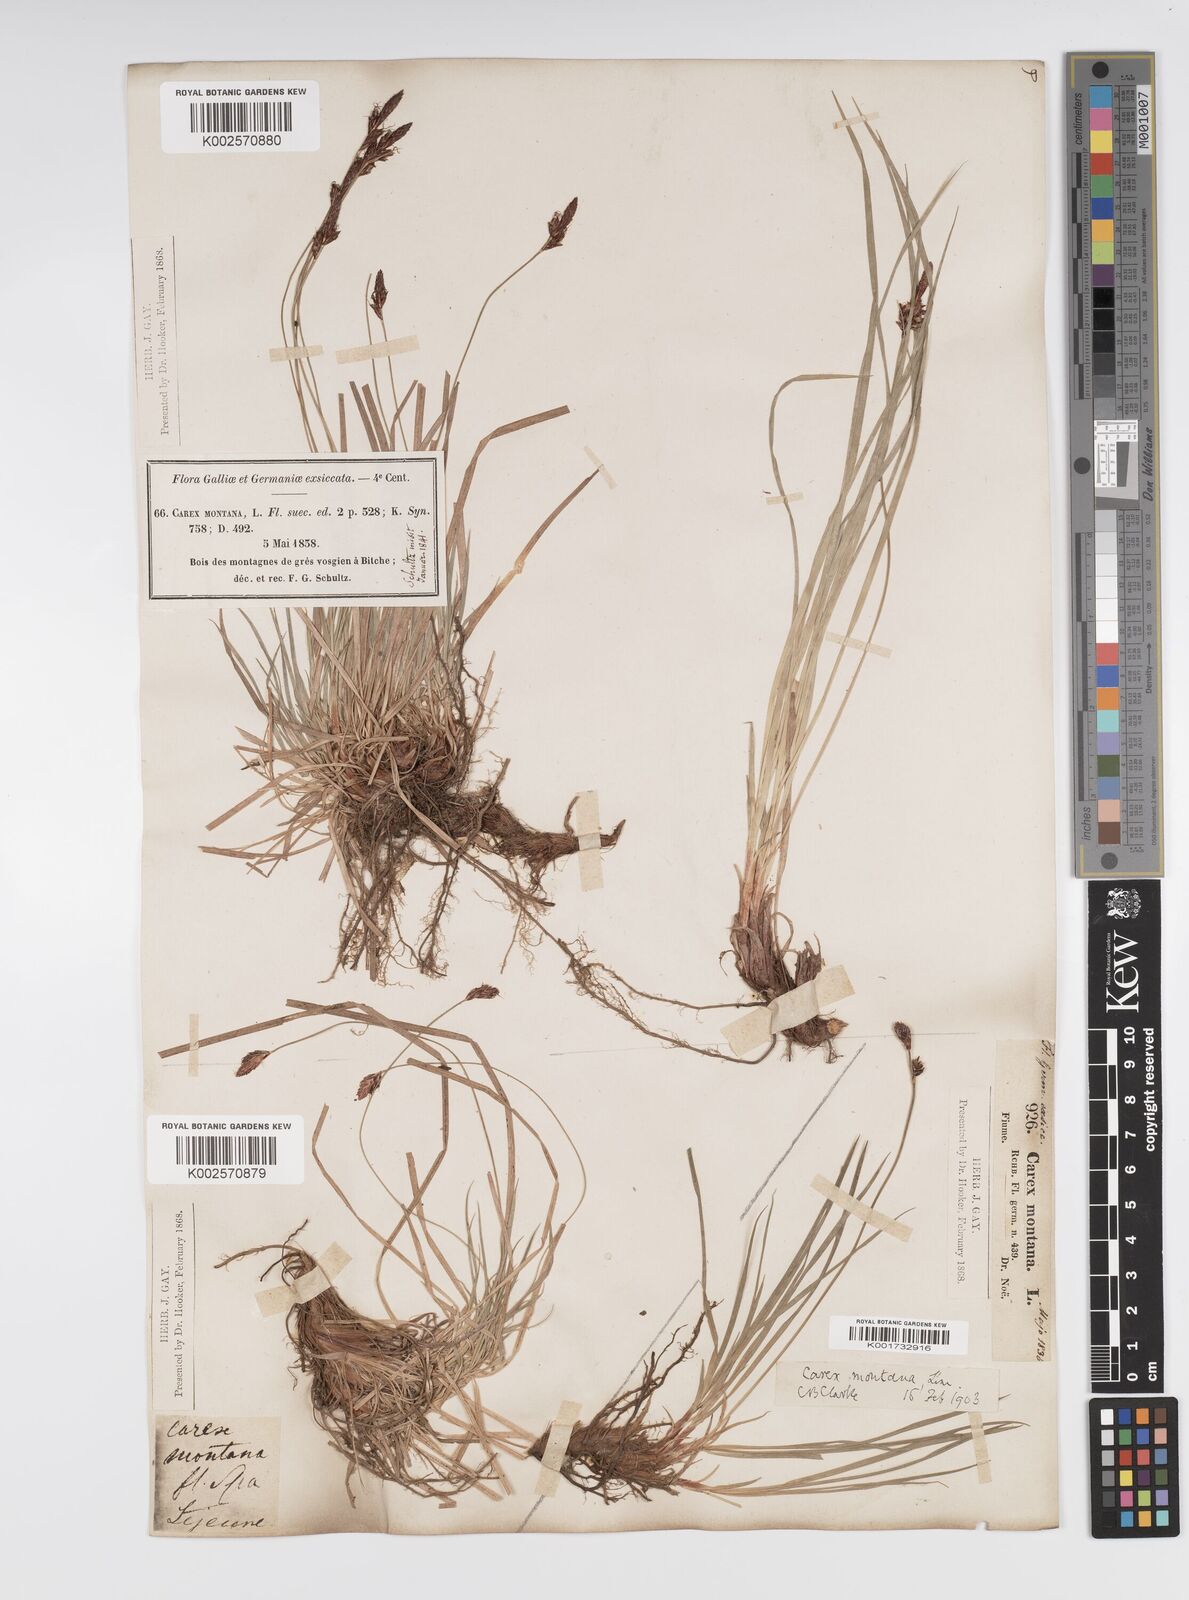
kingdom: Plantae
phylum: Tracheophyta
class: Liliopsida
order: Poales
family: Cyperaceae
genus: Carex
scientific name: Carex montana
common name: Soft-leaved sedge
